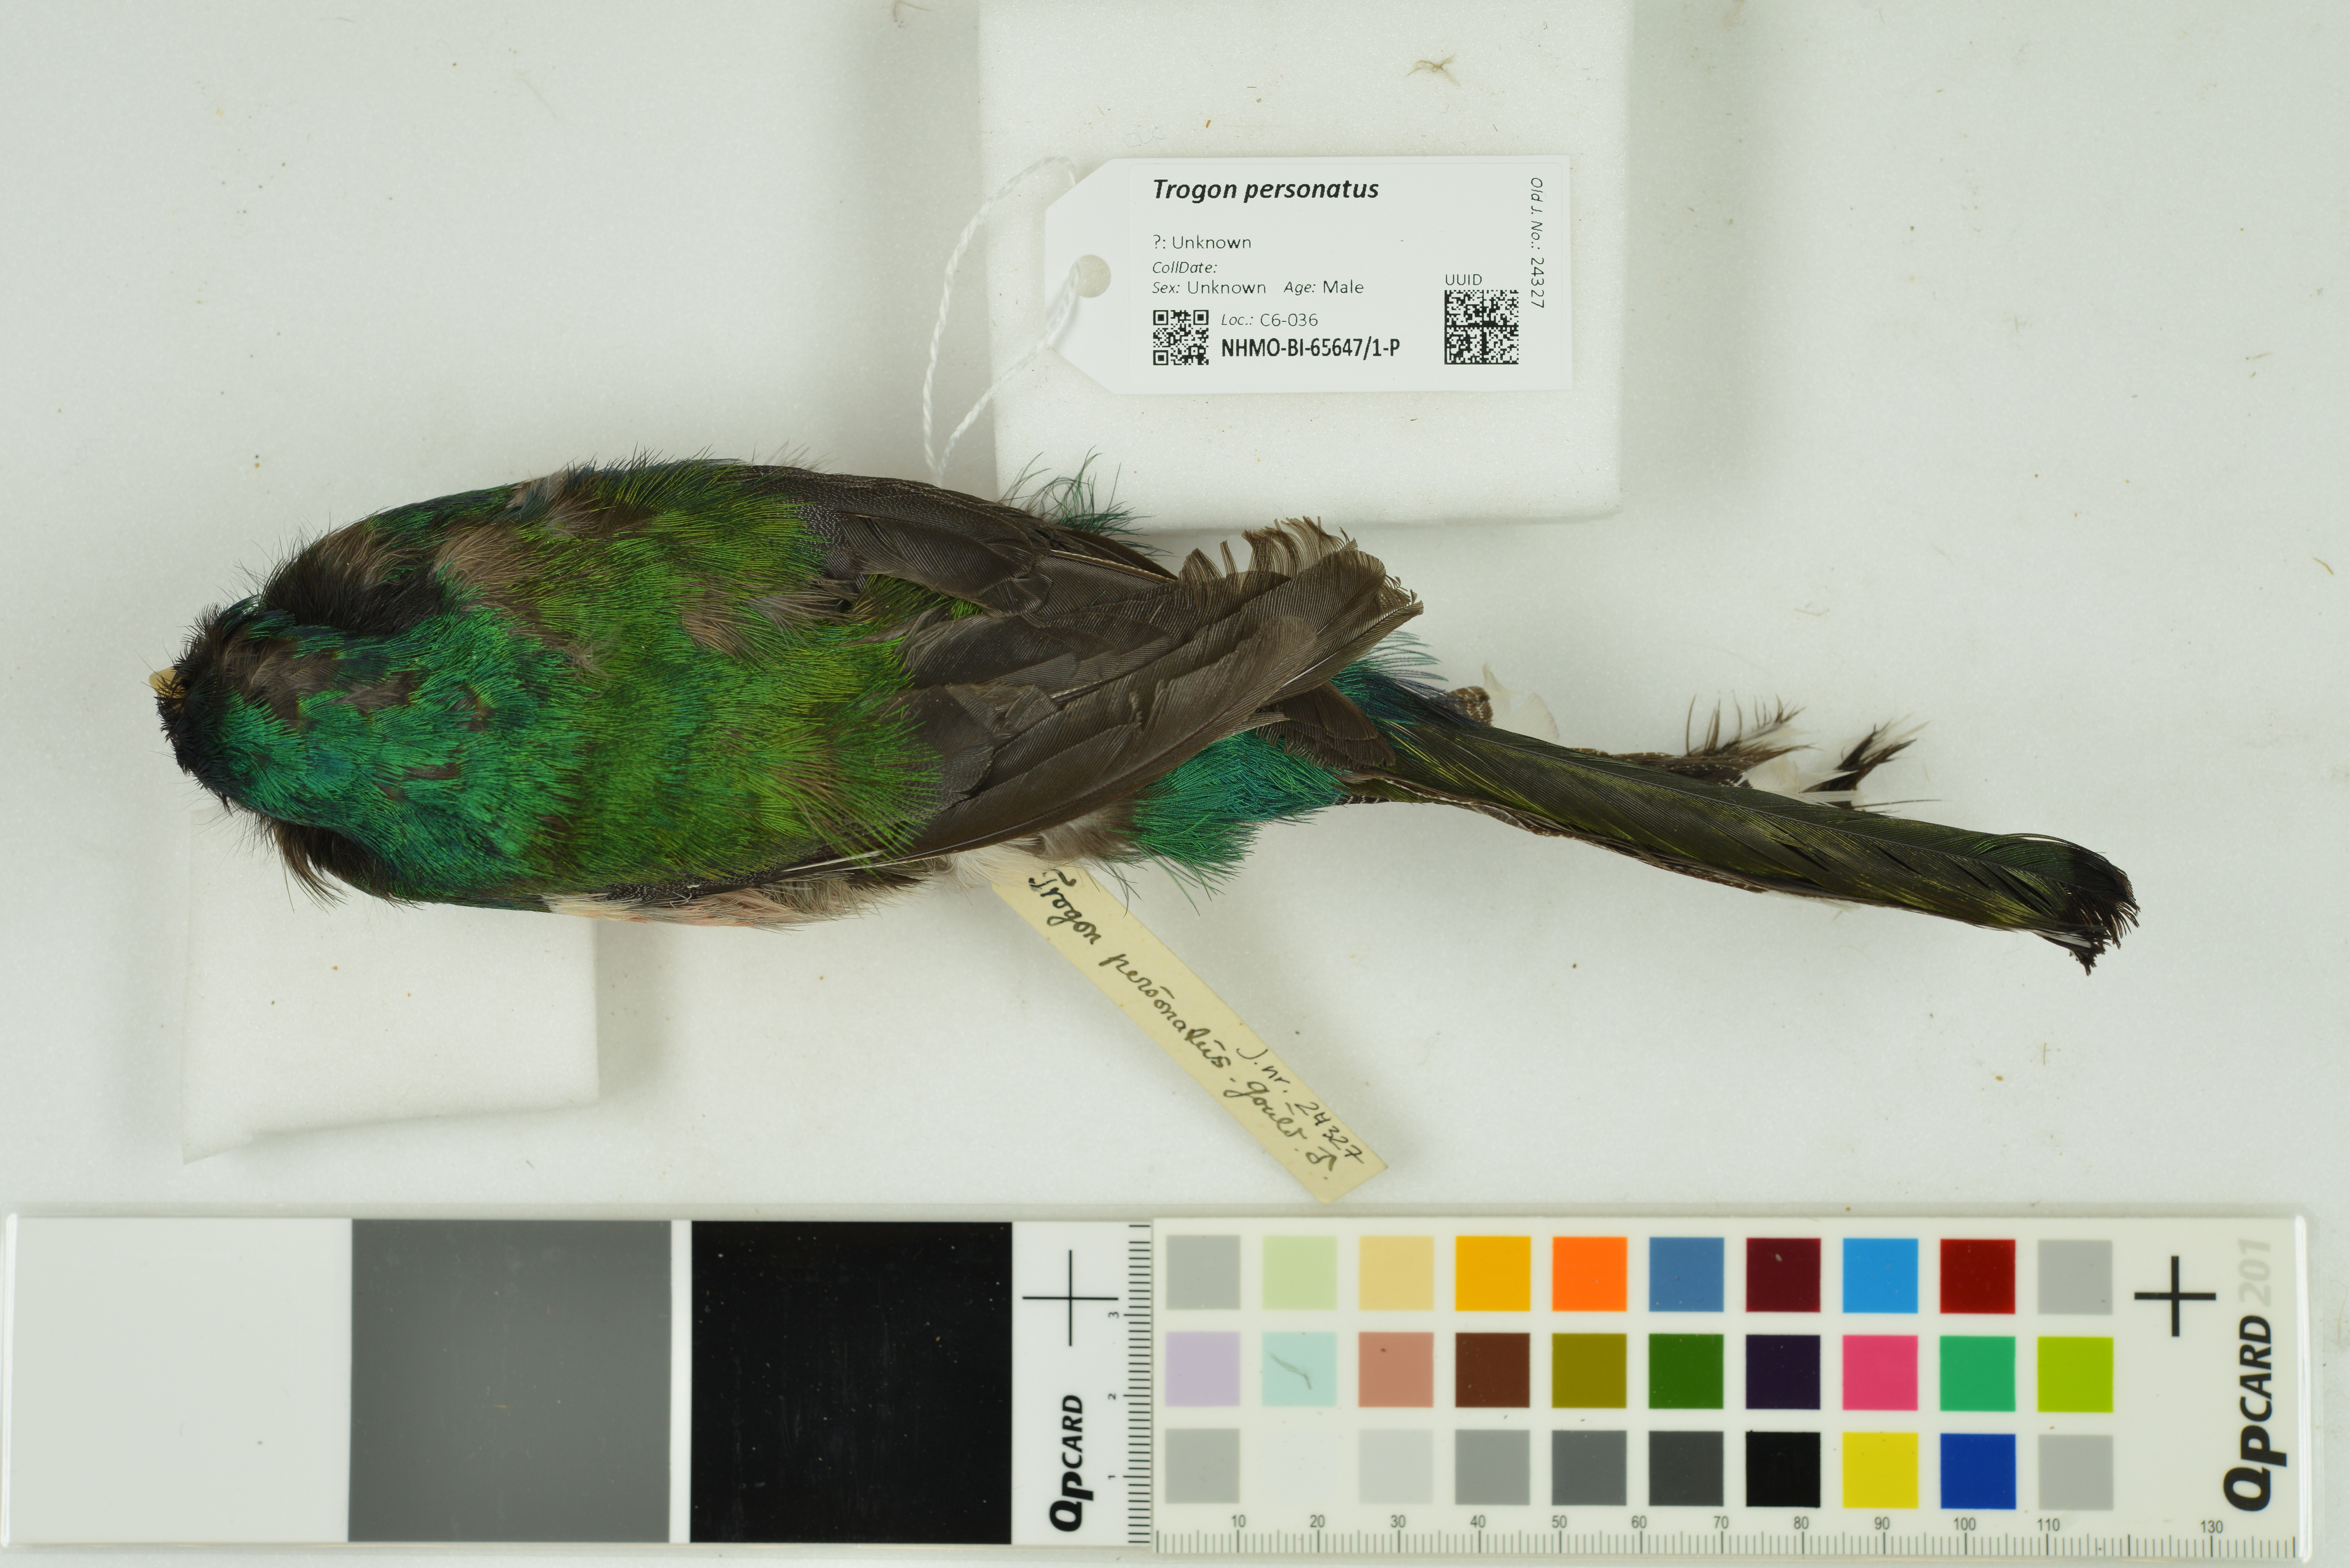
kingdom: Animalia
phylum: Chordata
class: Aves
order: Trogoniformes
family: Trogonidae
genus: Trogon
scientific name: Trogon personatus
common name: Masked trogon
